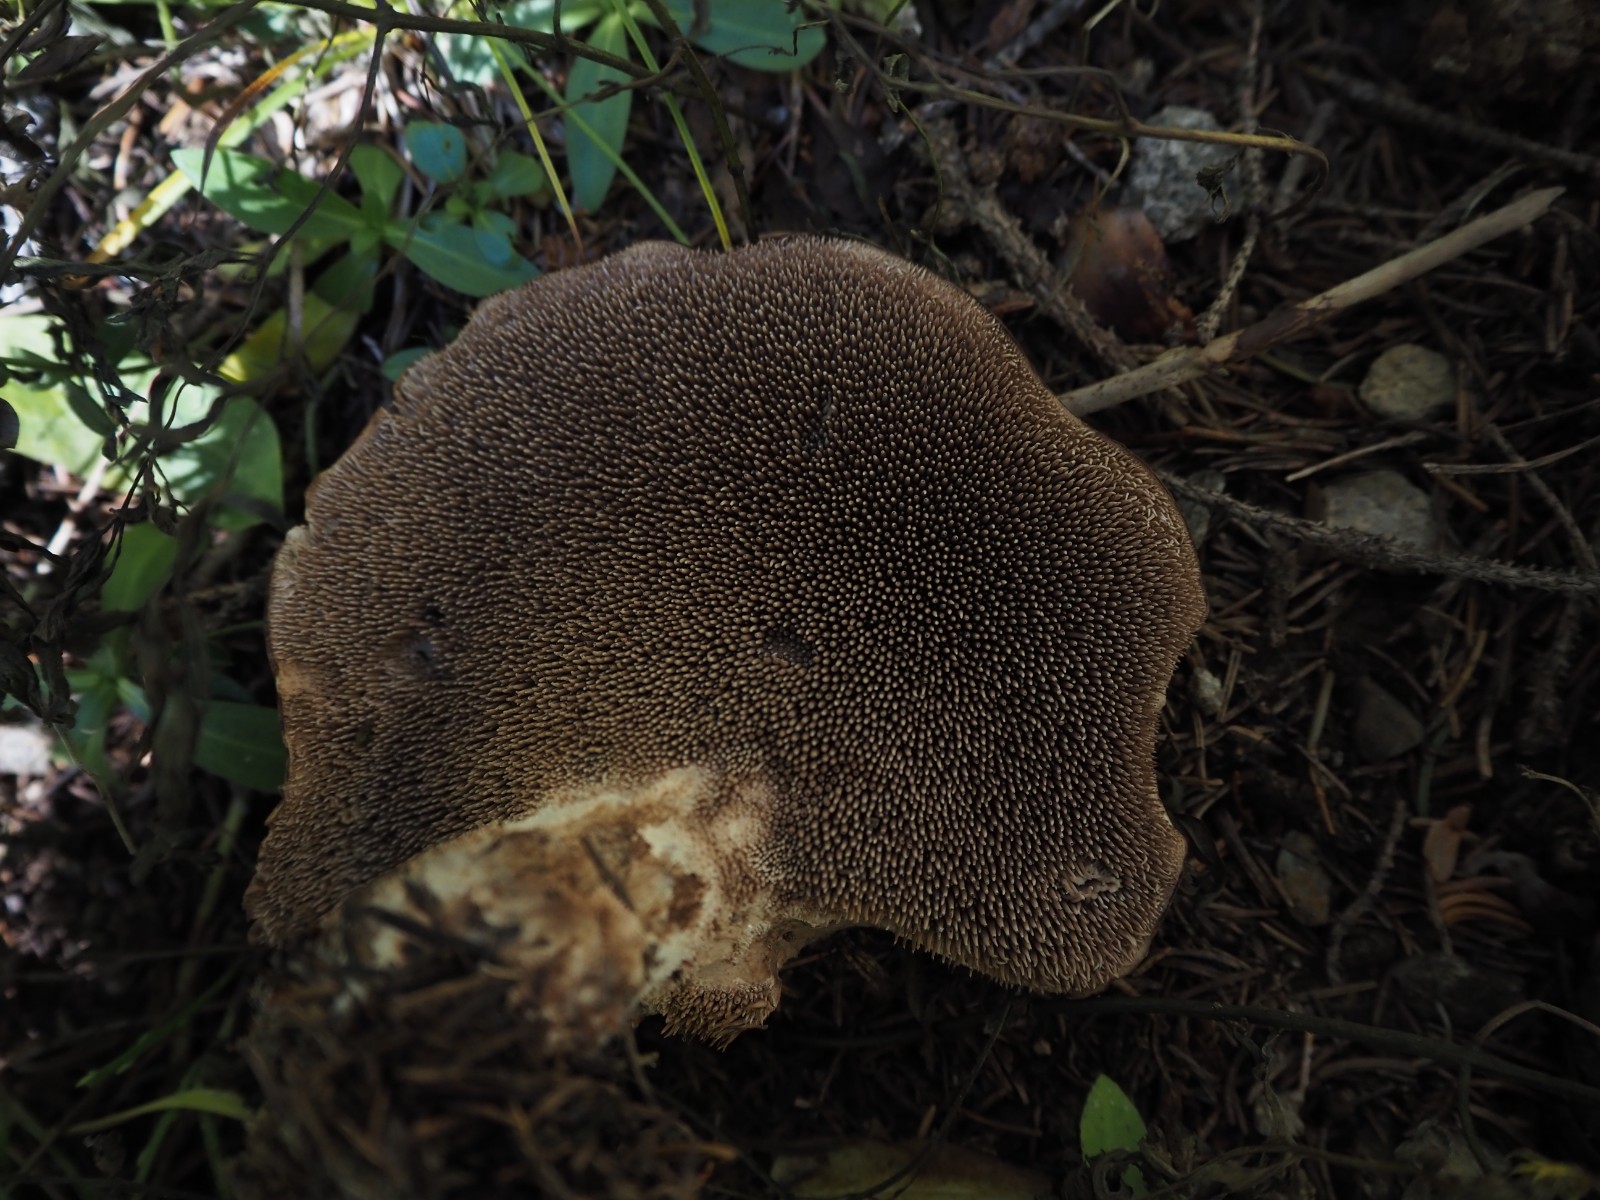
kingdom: Fungi
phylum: Basidiomycota
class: Agaricomycetes
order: Thelephorales
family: Bankeraceae
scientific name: Bankeraceae
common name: duftpigsvampfamilien
